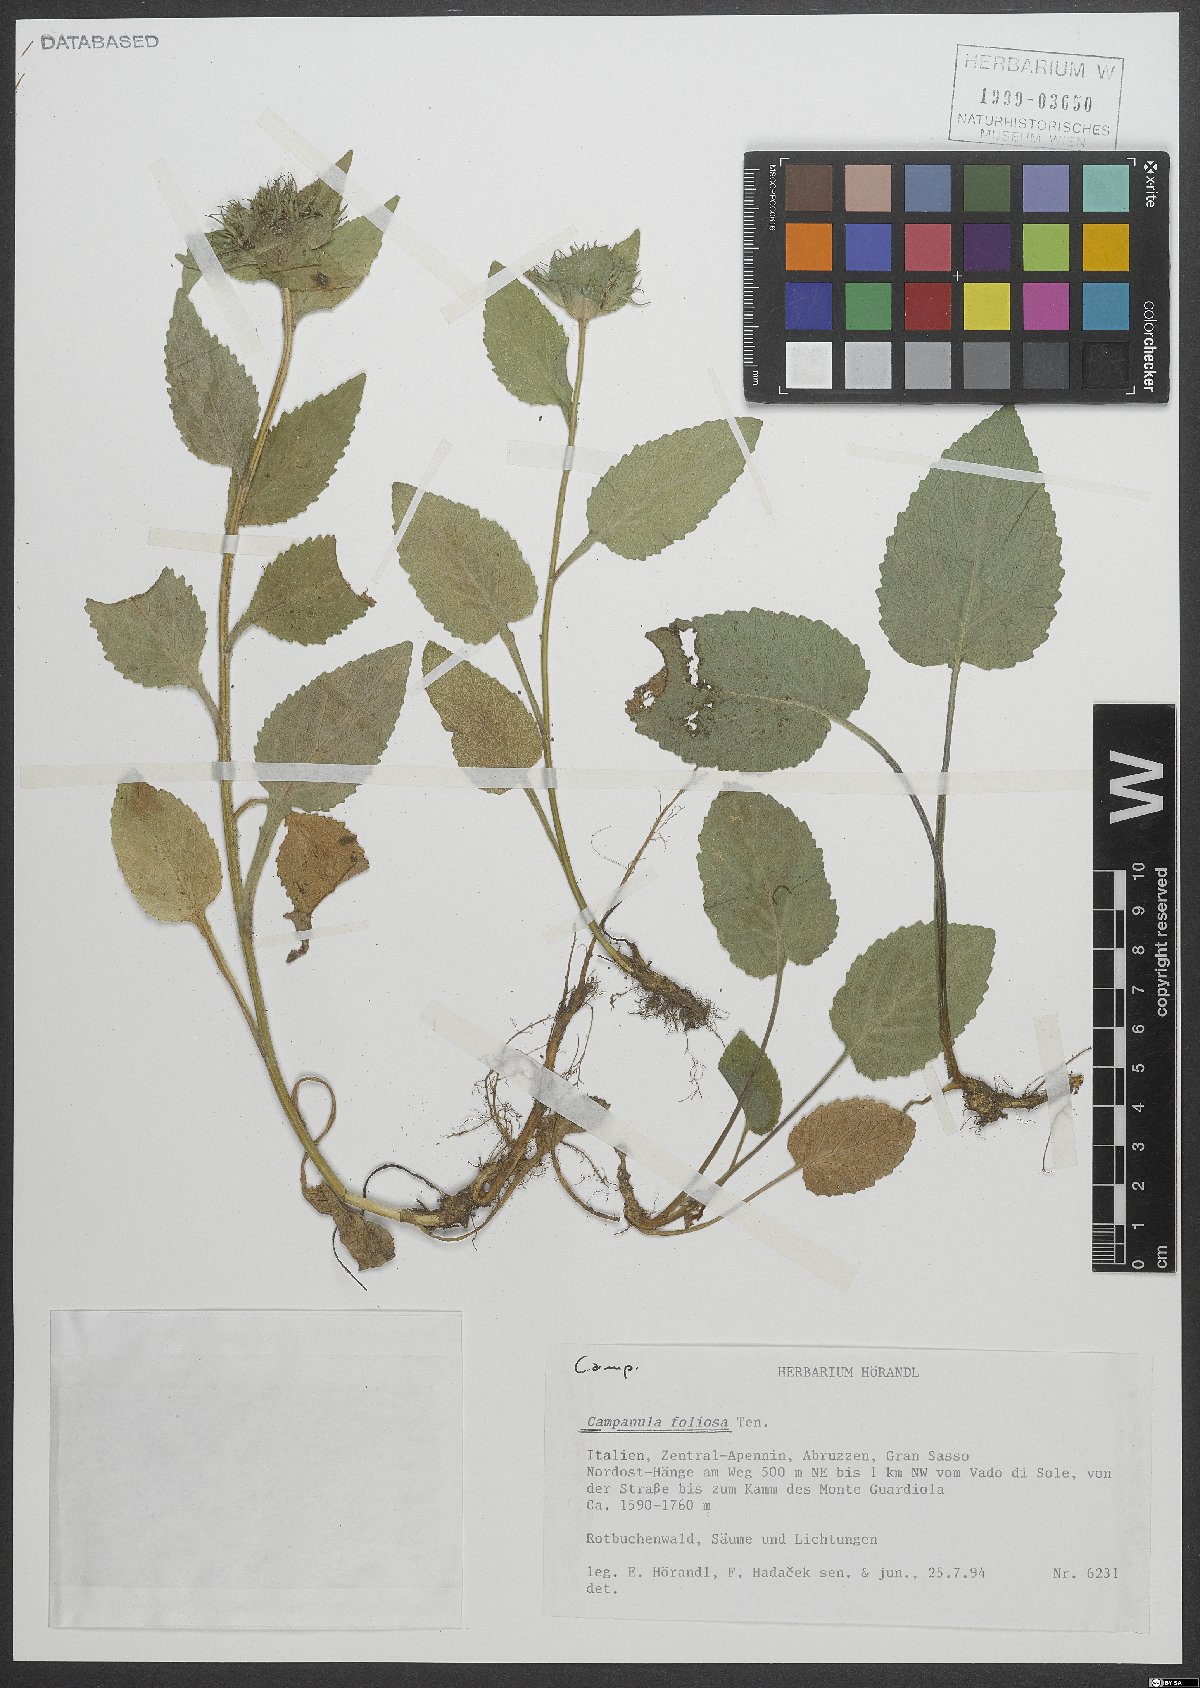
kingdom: Plantae
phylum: Tracheophyta
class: Magnoliopsida
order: Asterales
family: Campanulaceae
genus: Campanula
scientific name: Campanula foliosa
